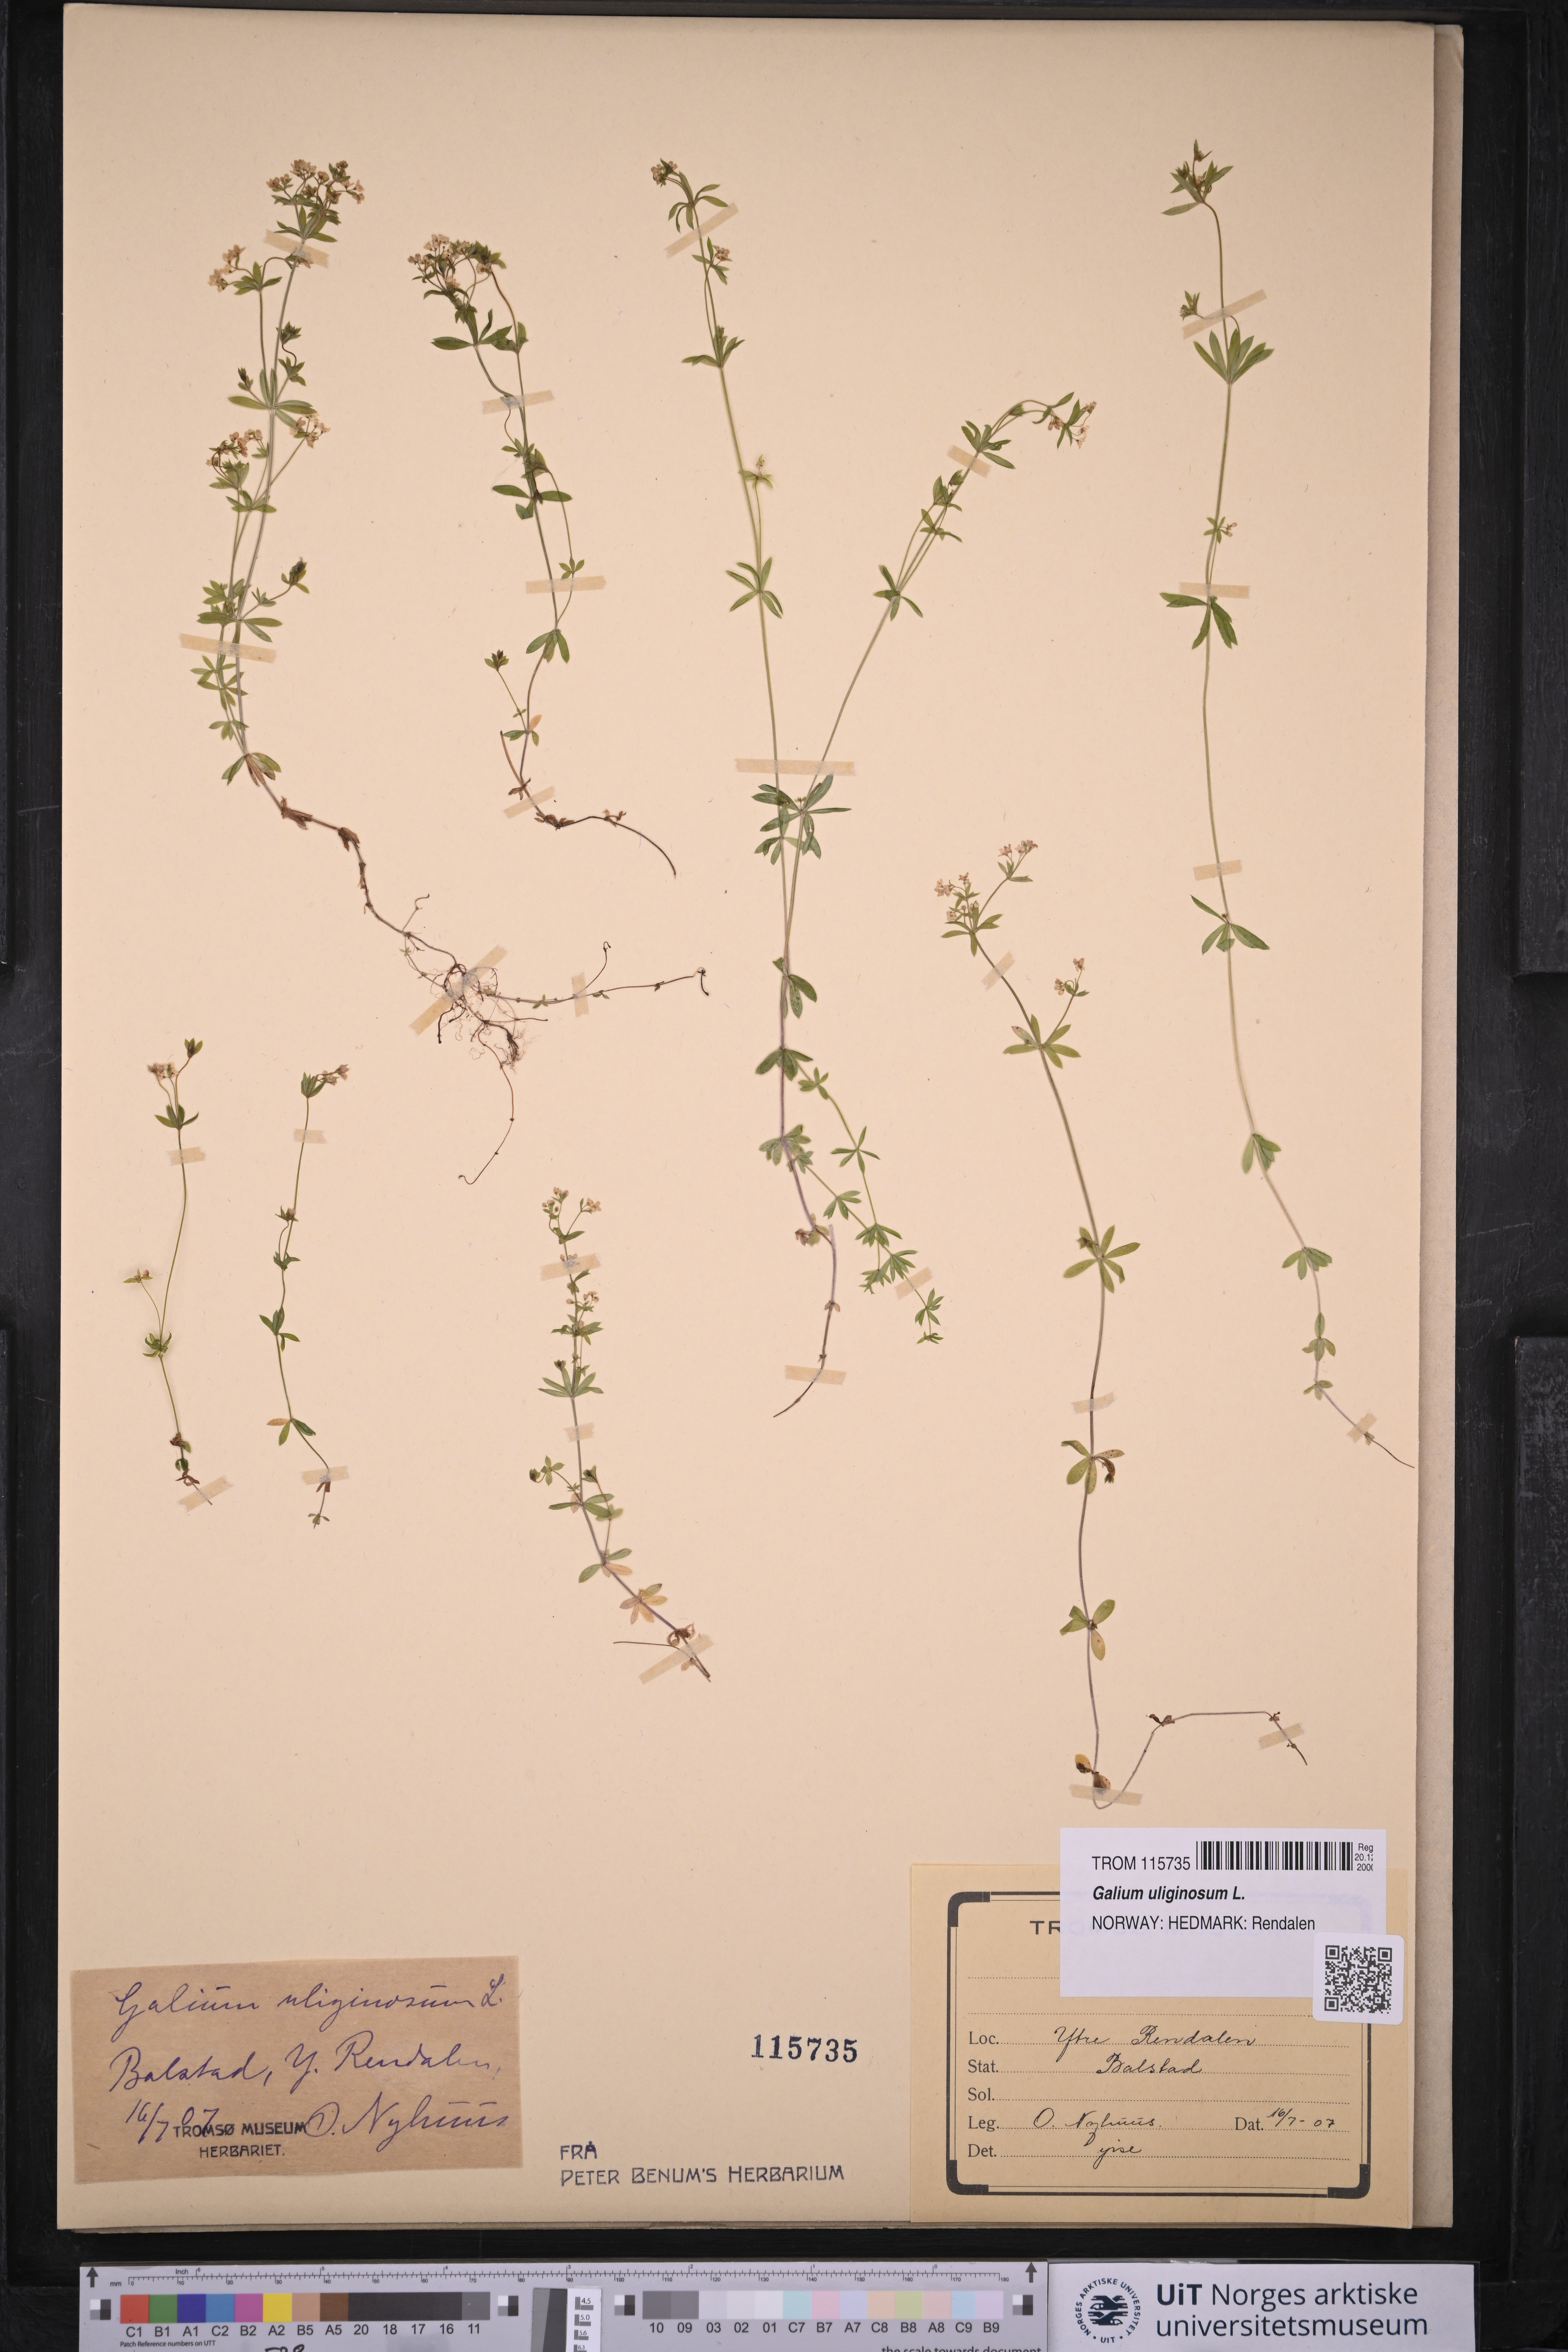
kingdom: Plantae
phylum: Tracheophyta
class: Magnoliopsida
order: Gentianales
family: Rubiaceae
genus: Galium
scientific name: Galium uliginosum
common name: Fen bedstraw
